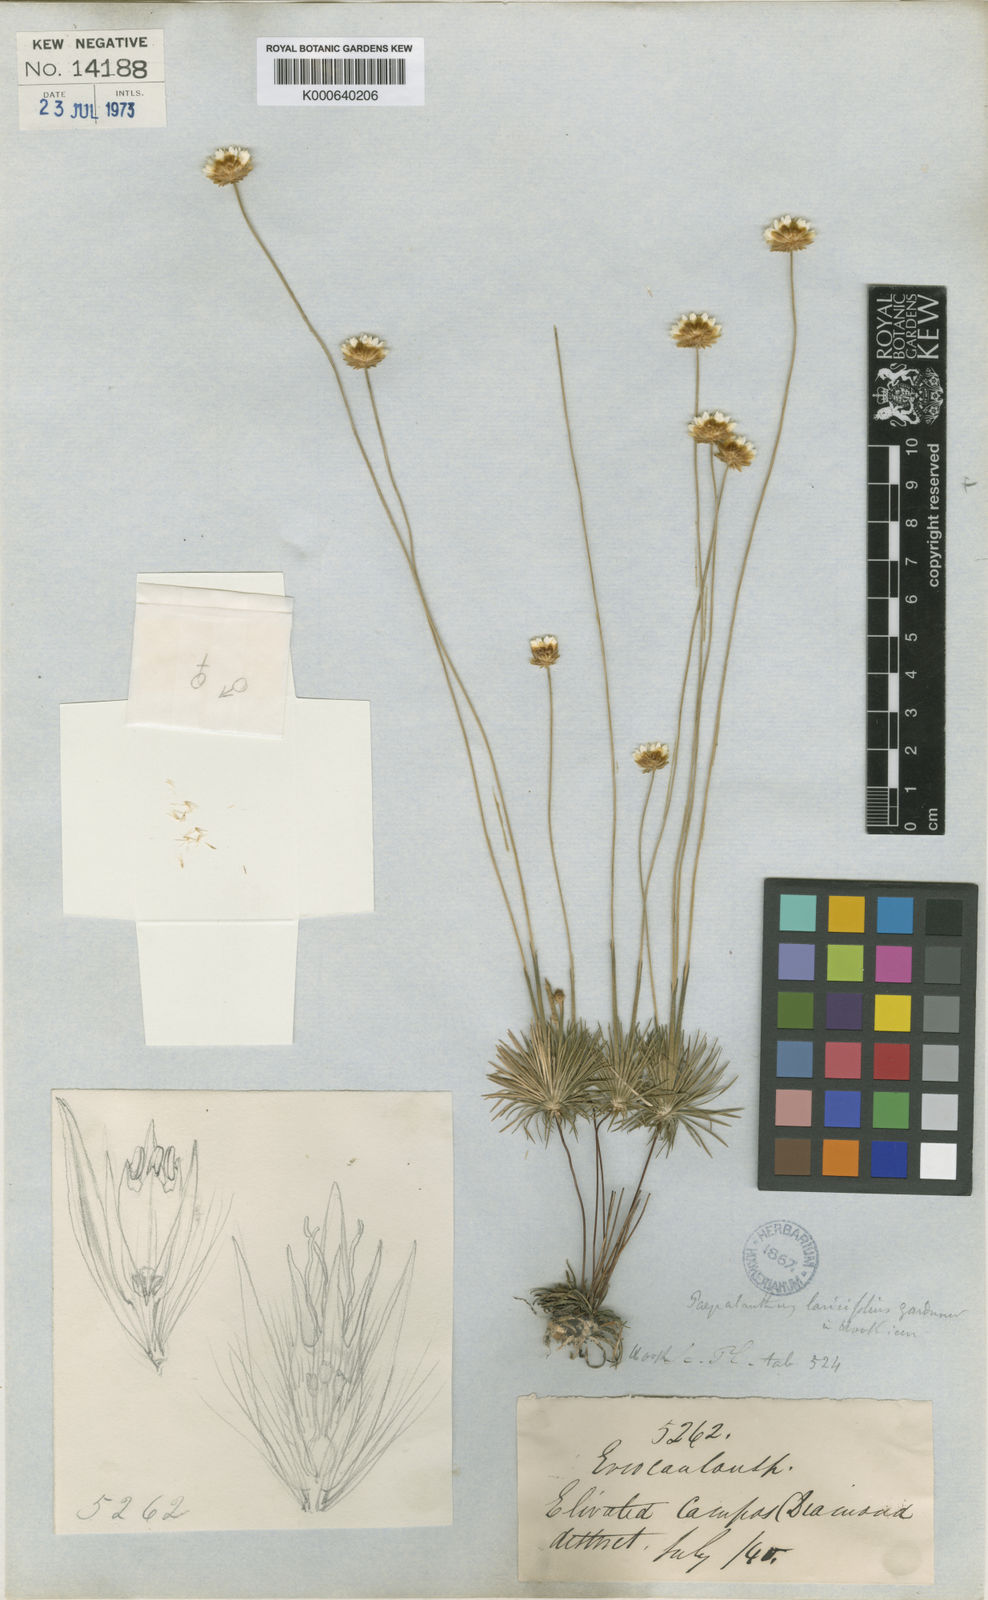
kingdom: Plantae
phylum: Tracheophyta
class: Liliopsida
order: Poales
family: Eriocaulaceae
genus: Syngonanthus
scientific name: Syngonanthus laricifolius
